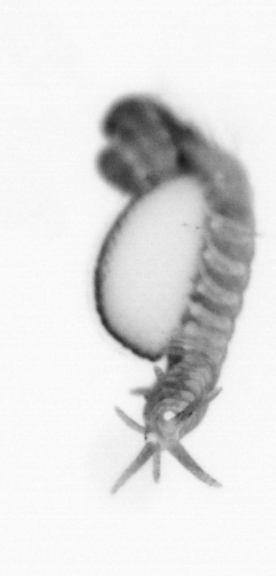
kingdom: Animalia
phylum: Annelida
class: Polychaeta
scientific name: Polychaeta
